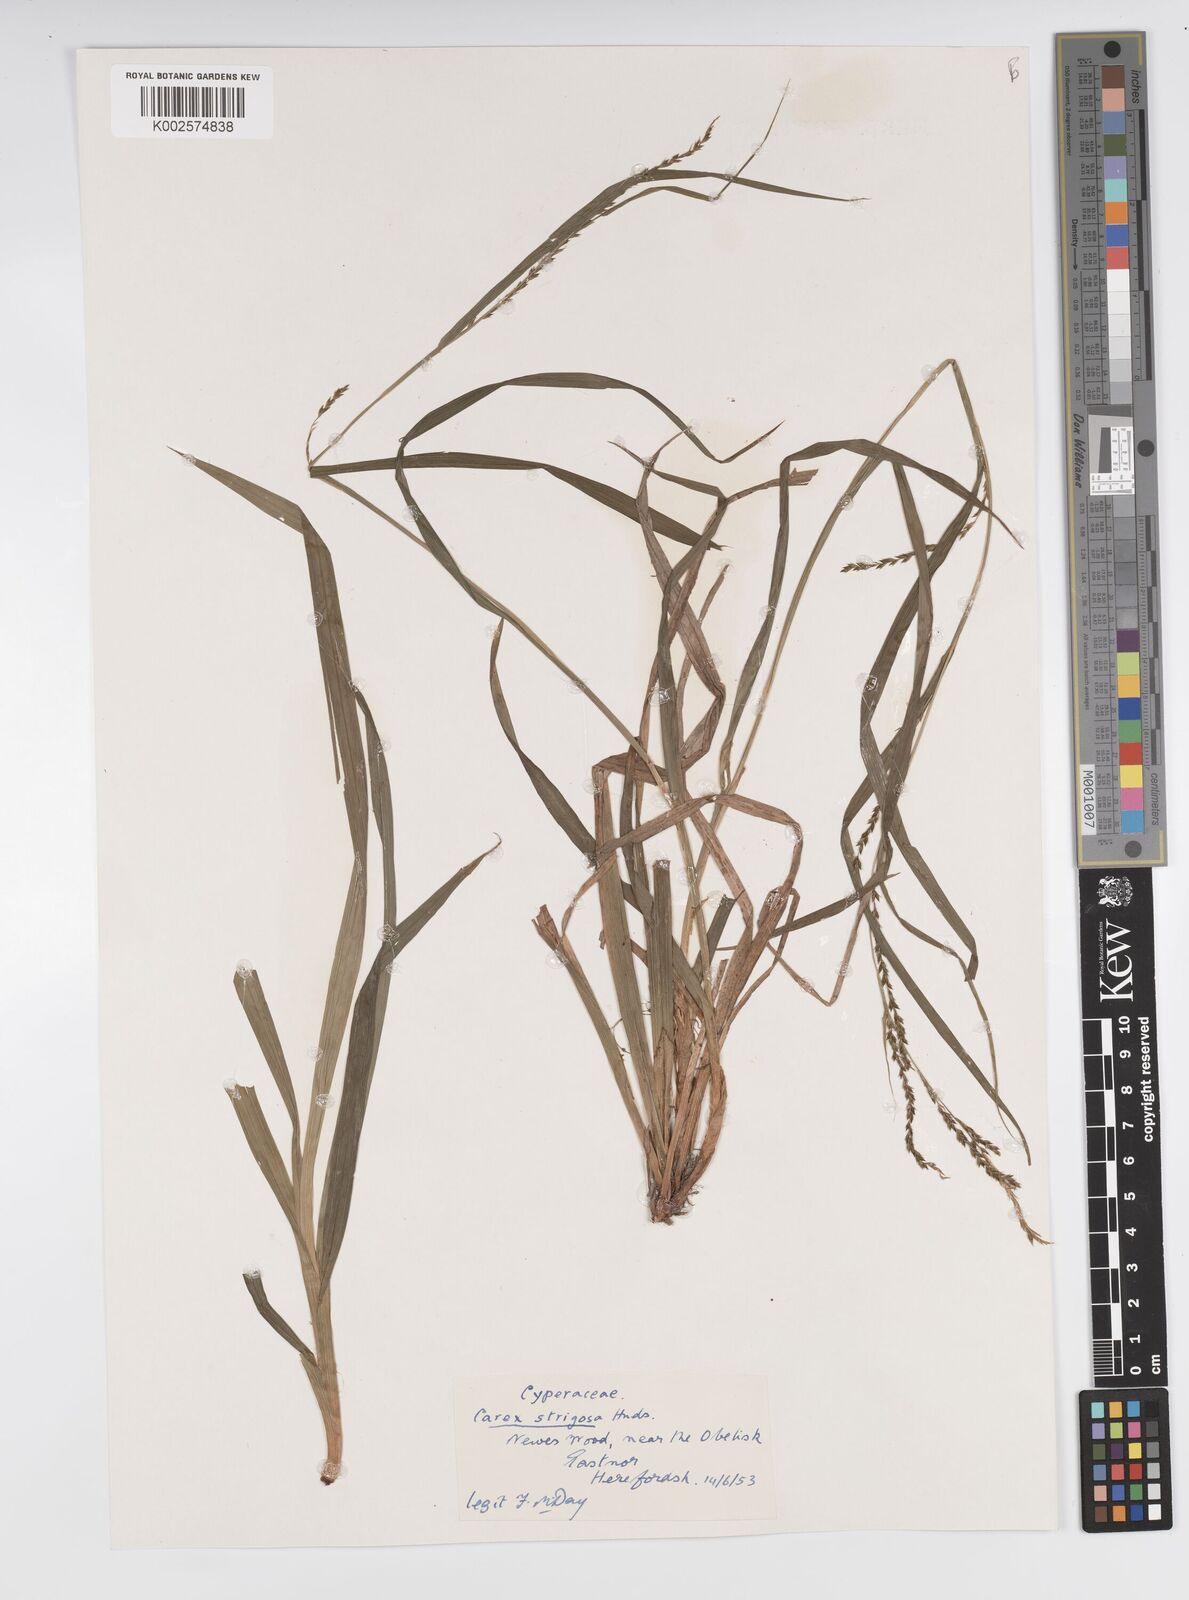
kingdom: Plantae
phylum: Tracheophyta
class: Liliopsida
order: Poales
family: Cyperaceae
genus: Carex
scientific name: Carex strigosa
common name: Thin-spiked wood-sedge
